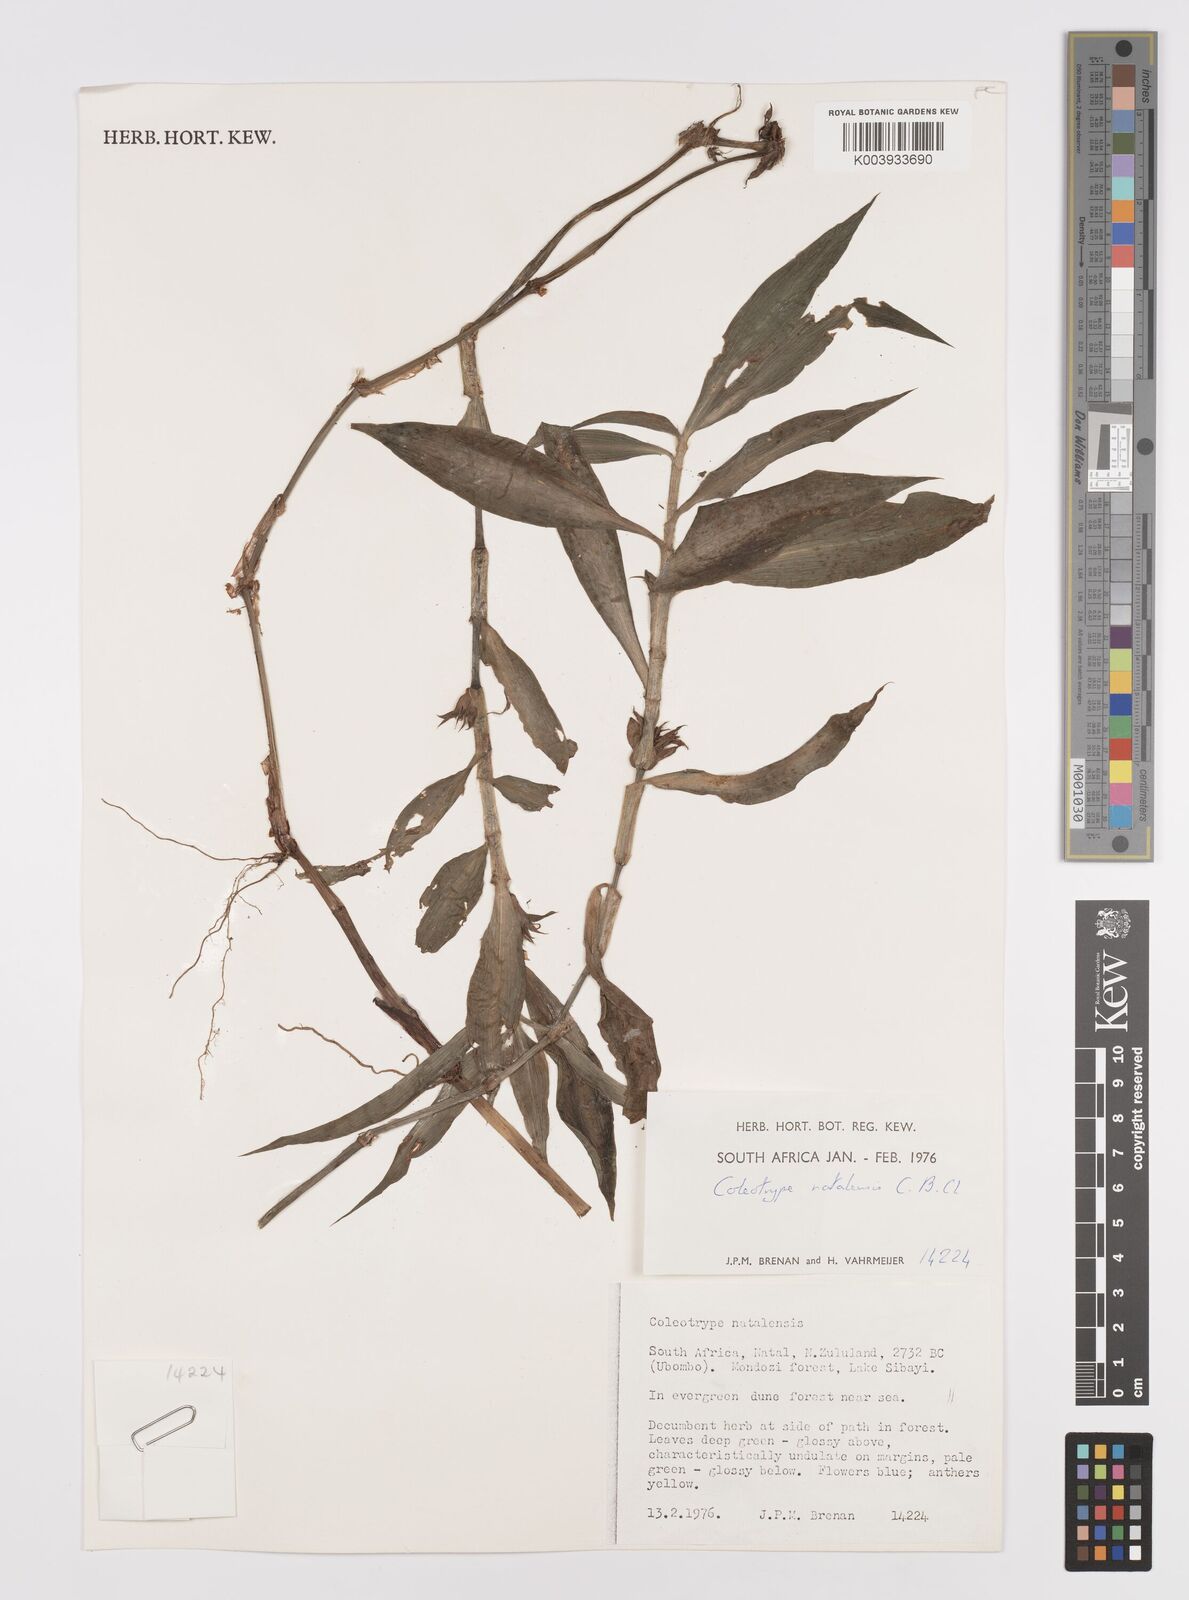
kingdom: Plantae
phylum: Tracheophyta
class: Liliopsida
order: Commelinales
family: Commelinaceae
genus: Coleotrype
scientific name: Coleotrype natalensis
